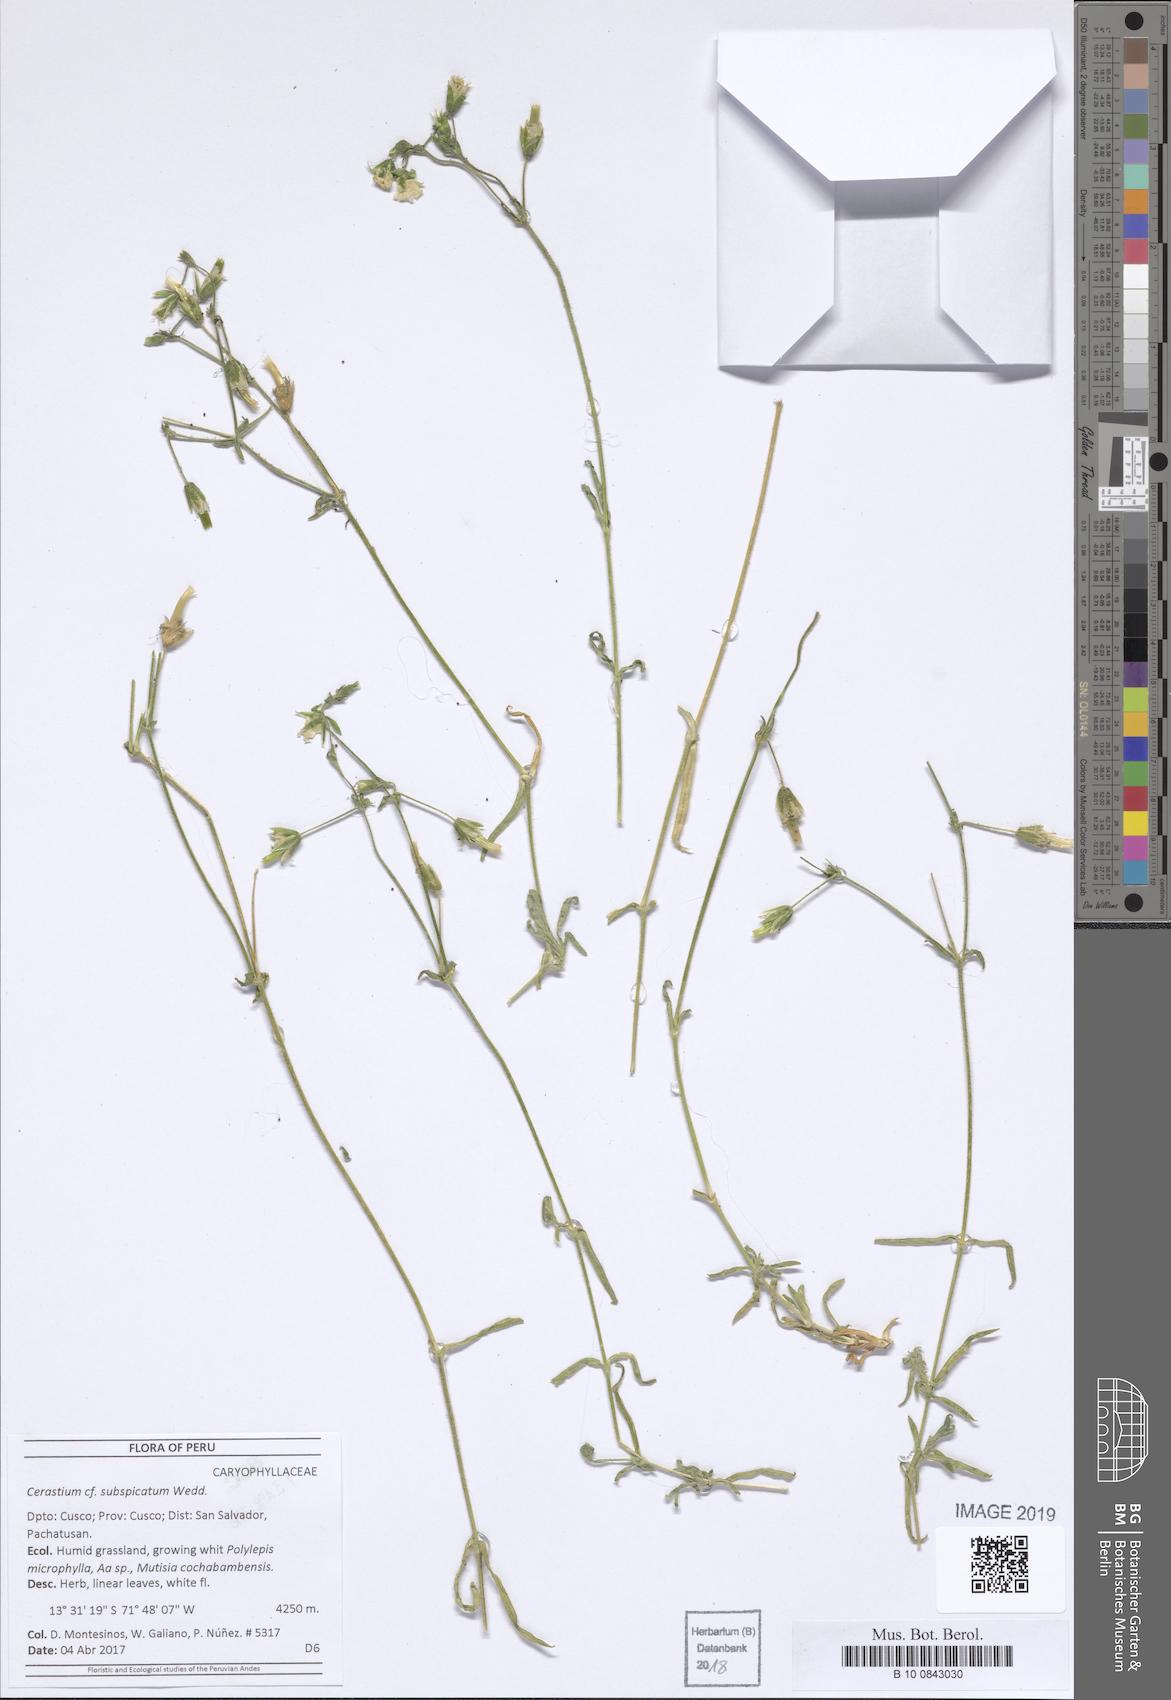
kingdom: Plantae
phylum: Tracheophyta
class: Magnoliopsida
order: Caryophyllales
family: Caryophyllaceae
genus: Cerastium
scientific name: Cerastium subspicatum
